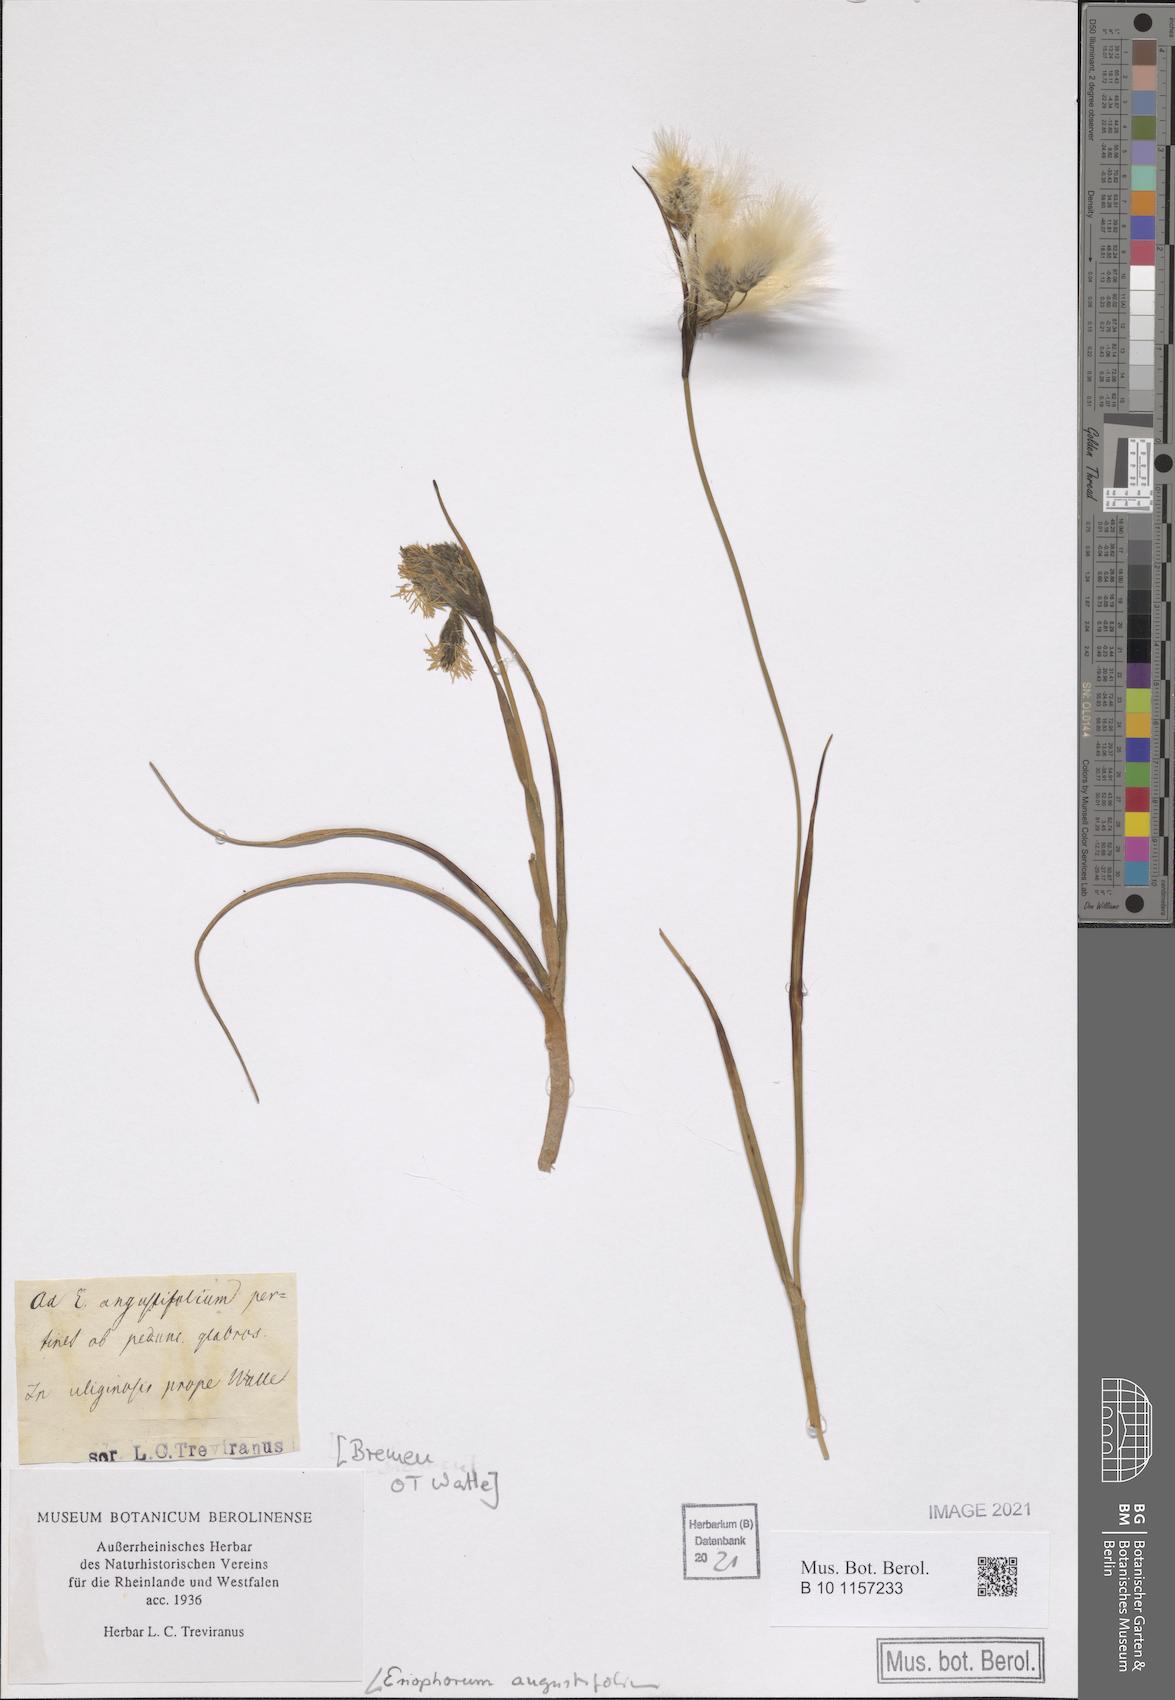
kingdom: Plantae
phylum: Tracheophyta
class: Liliopsida
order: Poales
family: Cyperaceae
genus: Eriophorum
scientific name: Eriophorum angustifolium
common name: Common cottongrass
